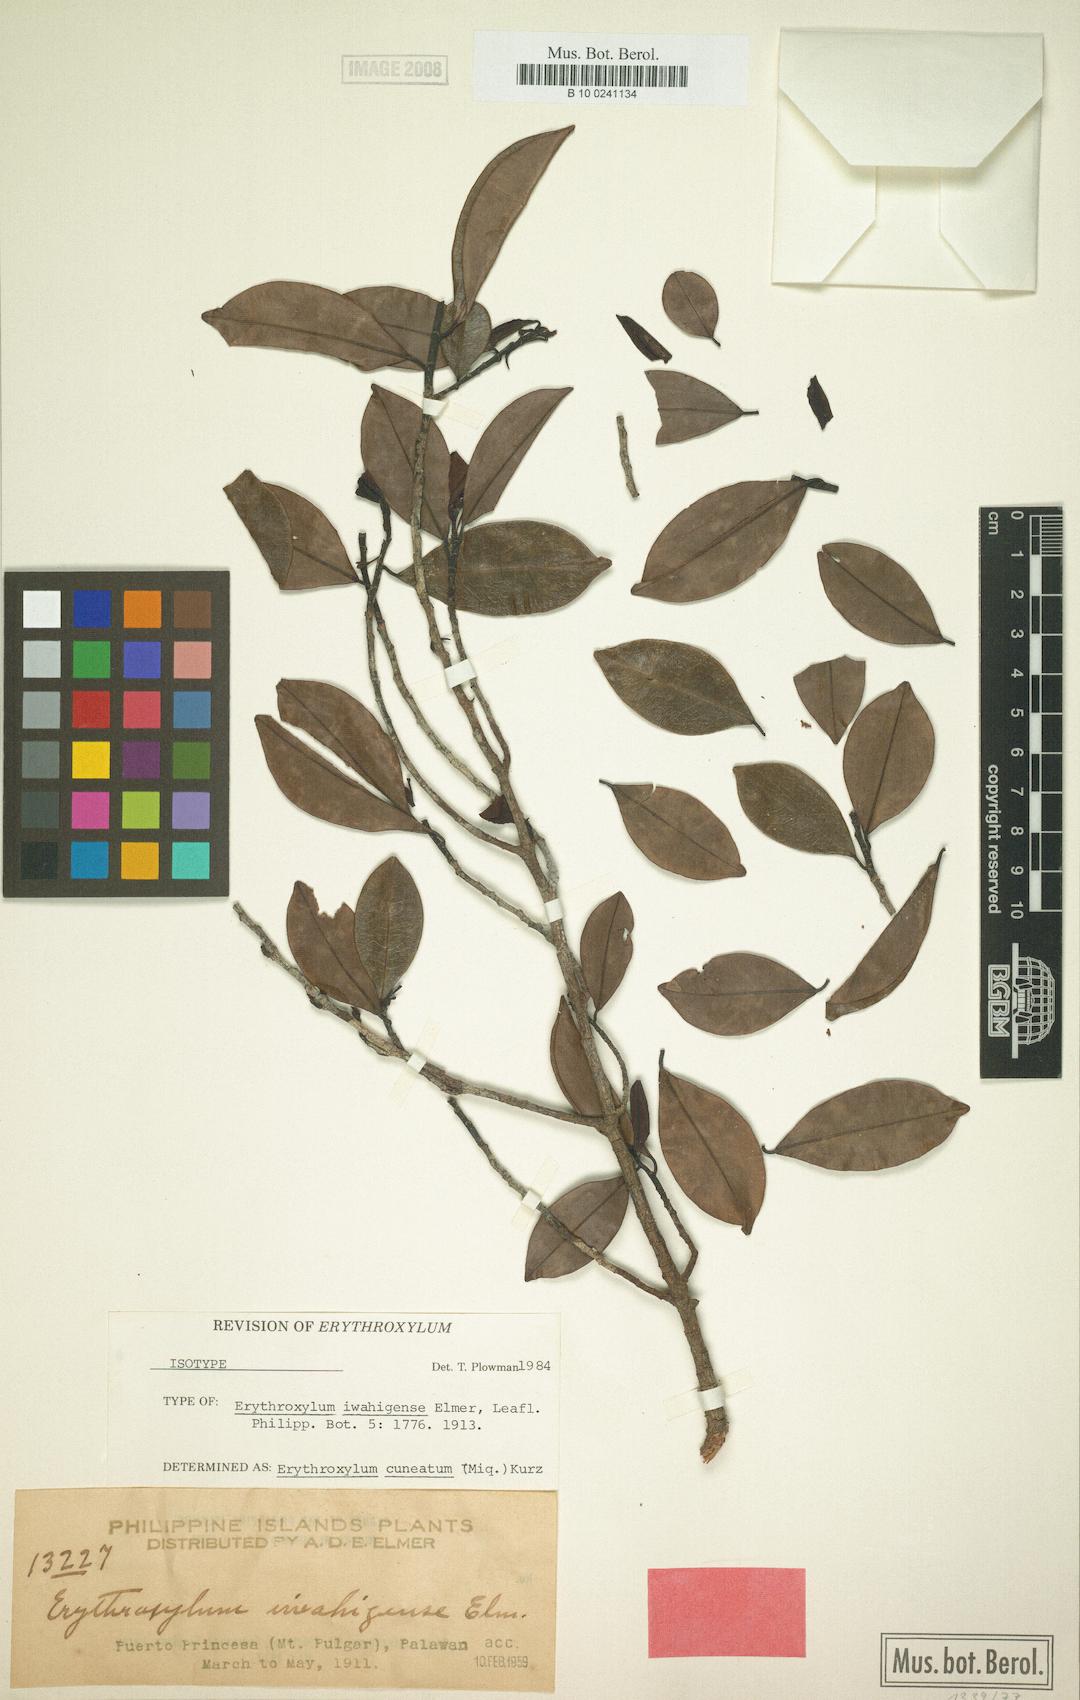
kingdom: Plantae
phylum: Tracheophyta
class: Magnoliopsida
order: Malpighiales
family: Erythroxylaceae
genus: Erythroxylum
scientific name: Erythroxylum cuneatum
